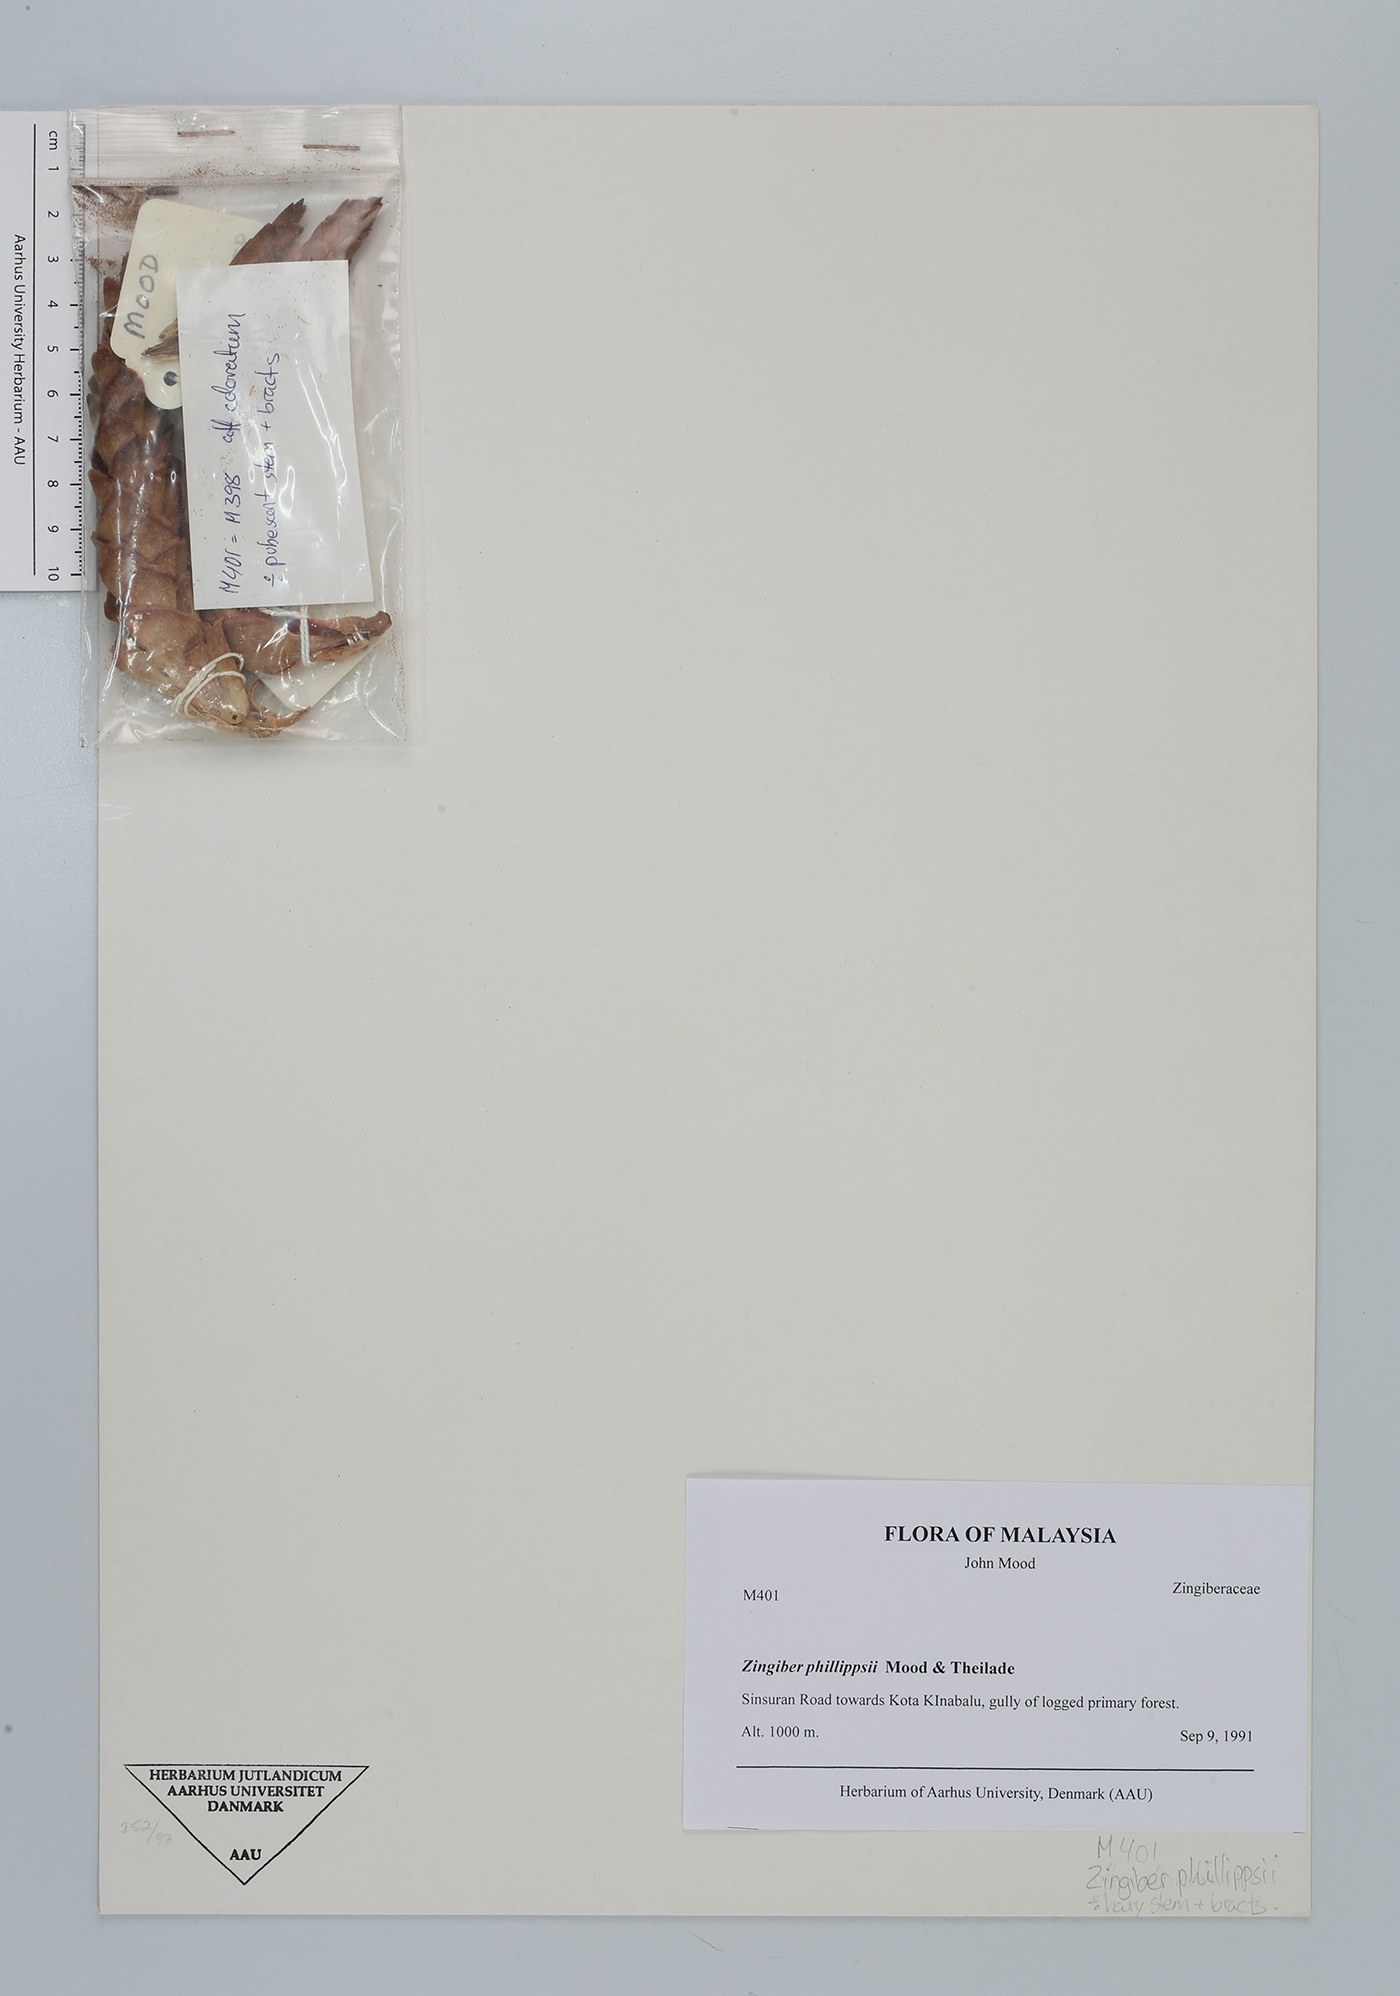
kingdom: Plantae
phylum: Tracheophyta
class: Liliopsida
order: Zingiberales
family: Zingiberaceae
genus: Zingiber
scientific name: Zingiber phillippsiae
